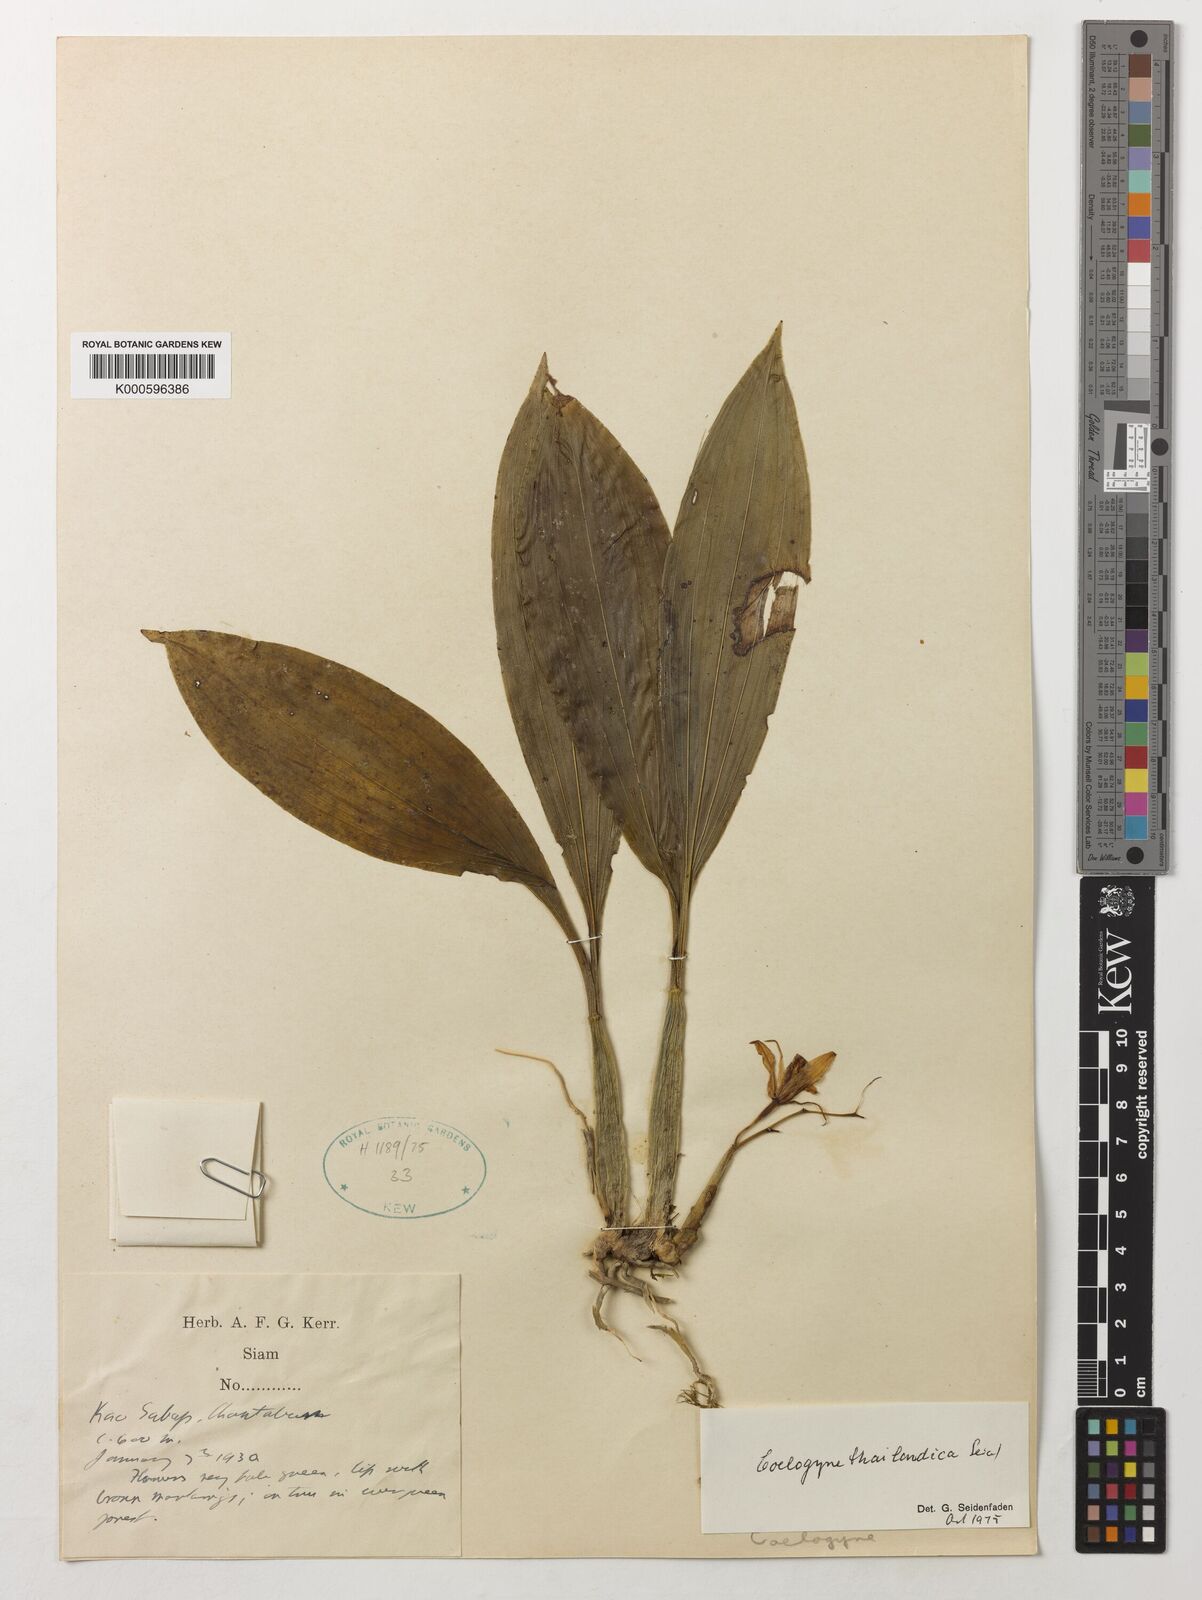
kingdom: Plantae
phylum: Tracheophyta
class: Liliopsida
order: Asparagales
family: Orchidaceae
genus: Coelogyne
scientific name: Coelogyne quadratiloba
